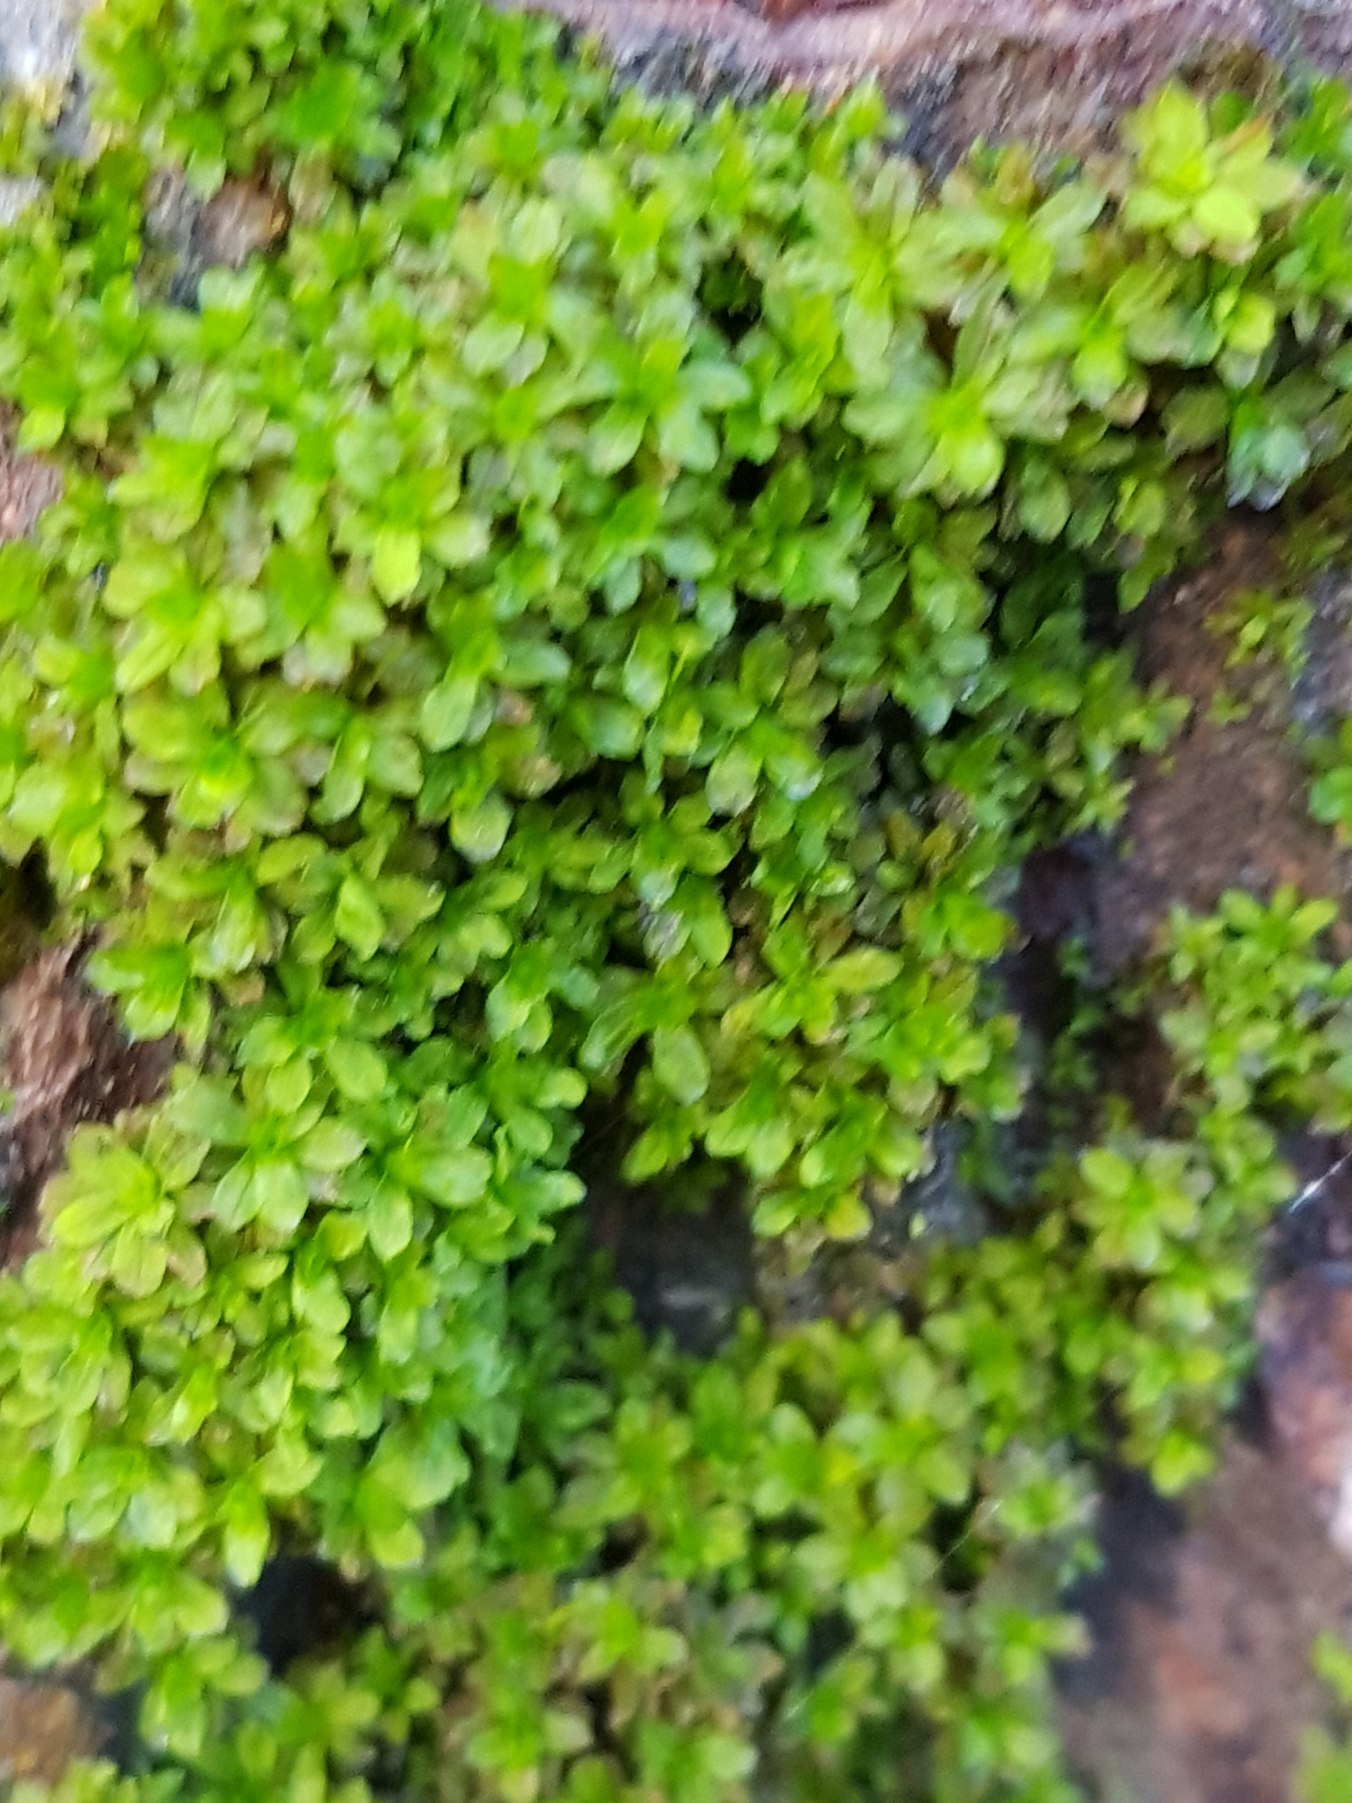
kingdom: Plantae
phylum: Bryophyta
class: Bryopsida
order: Pottiales
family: Pottiaceae
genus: Syntrichia
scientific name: Syntrichia latifolia
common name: Butbladet hårstjerne
